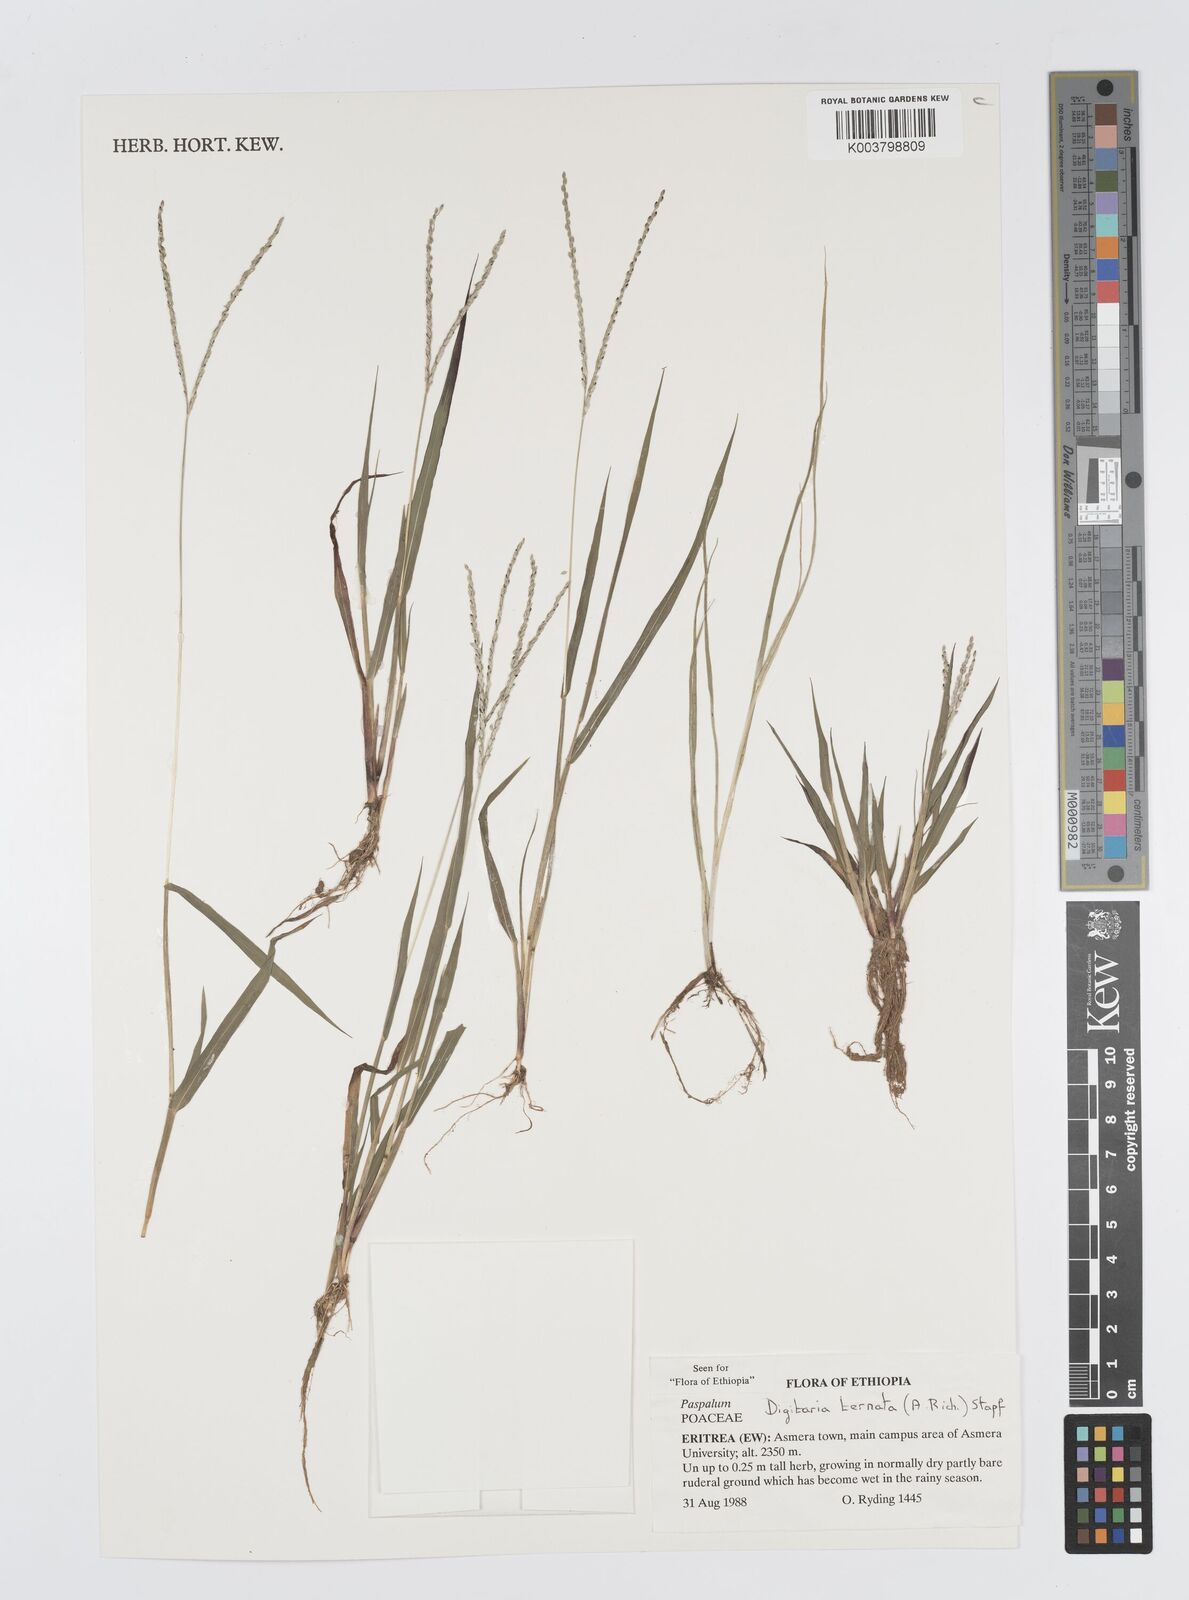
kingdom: Plantae
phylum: Tracheophyta
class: Liliopsida
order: Poales
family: Poaceae
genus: Digitaria
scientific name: Digitaria ternata
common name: Blackseed crabgrass
